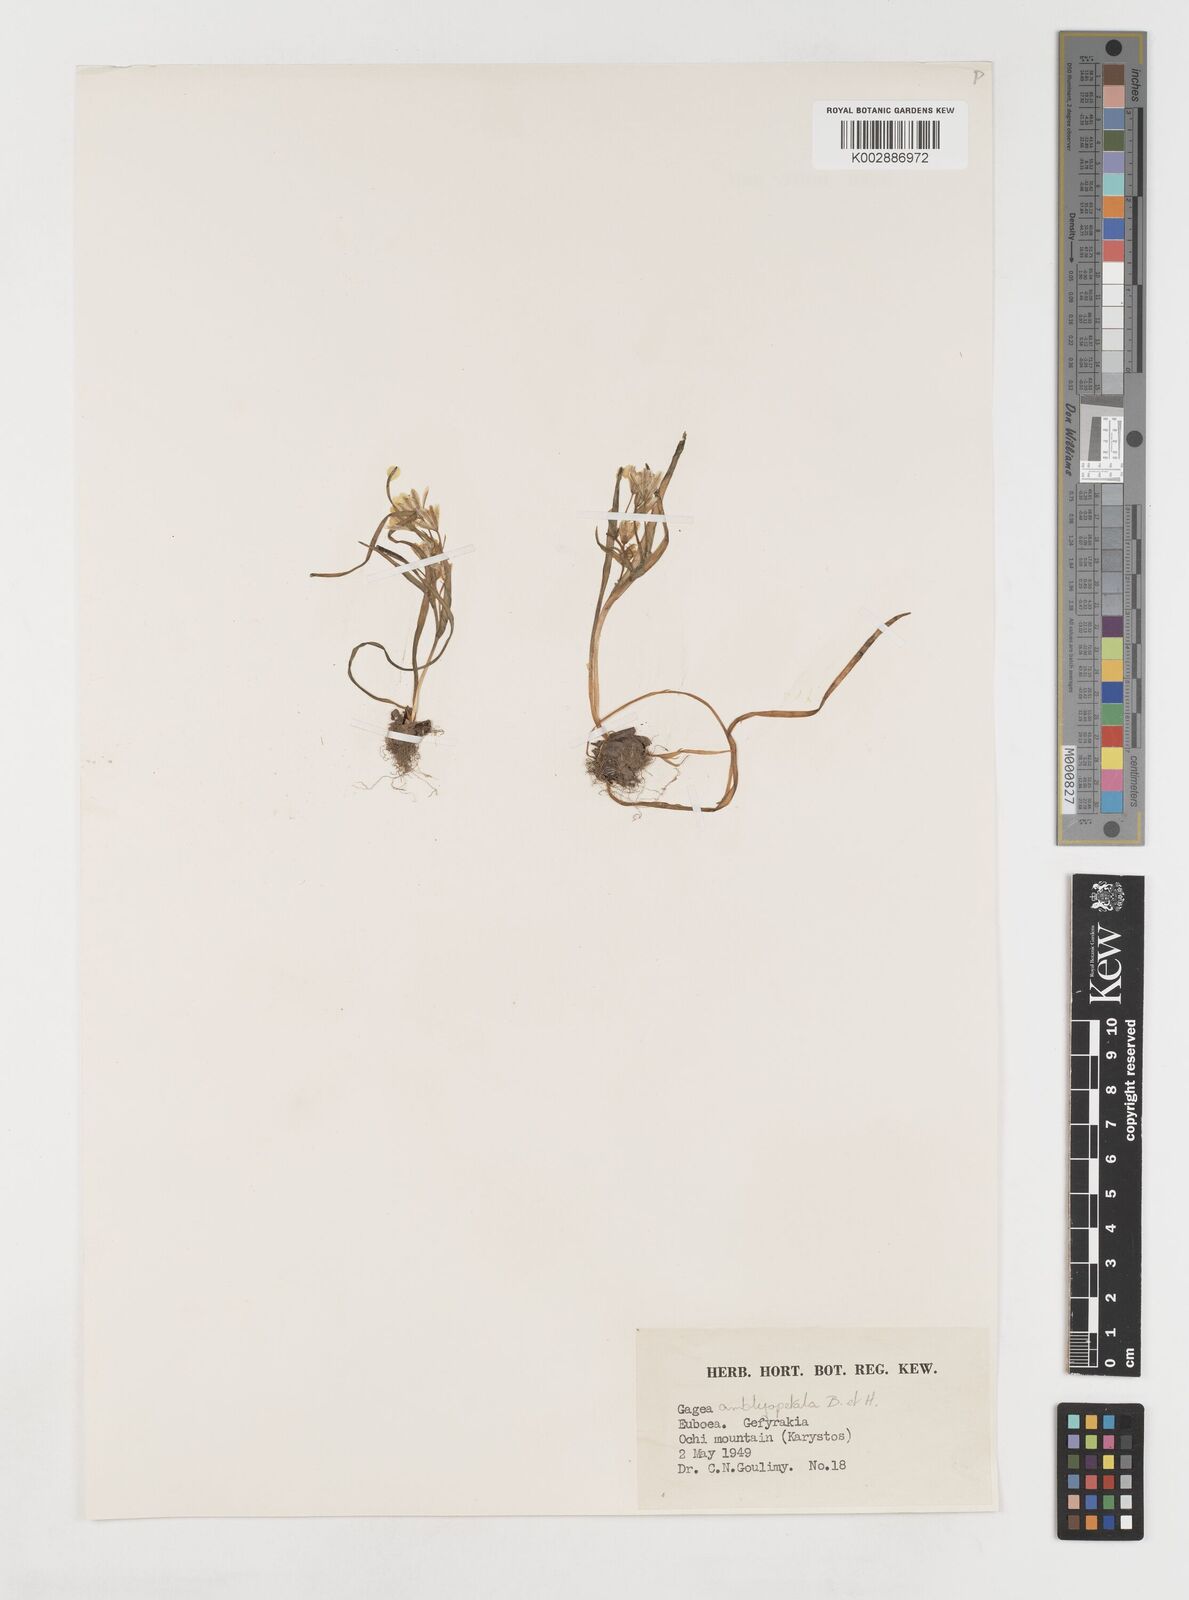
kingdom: Plantae
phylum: Tracheophyta
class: Liliopsida
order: Liliales
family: Liliaceae
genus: Gagea
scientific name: Gagea amblyopetala
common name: Blunt-flowered gagea
